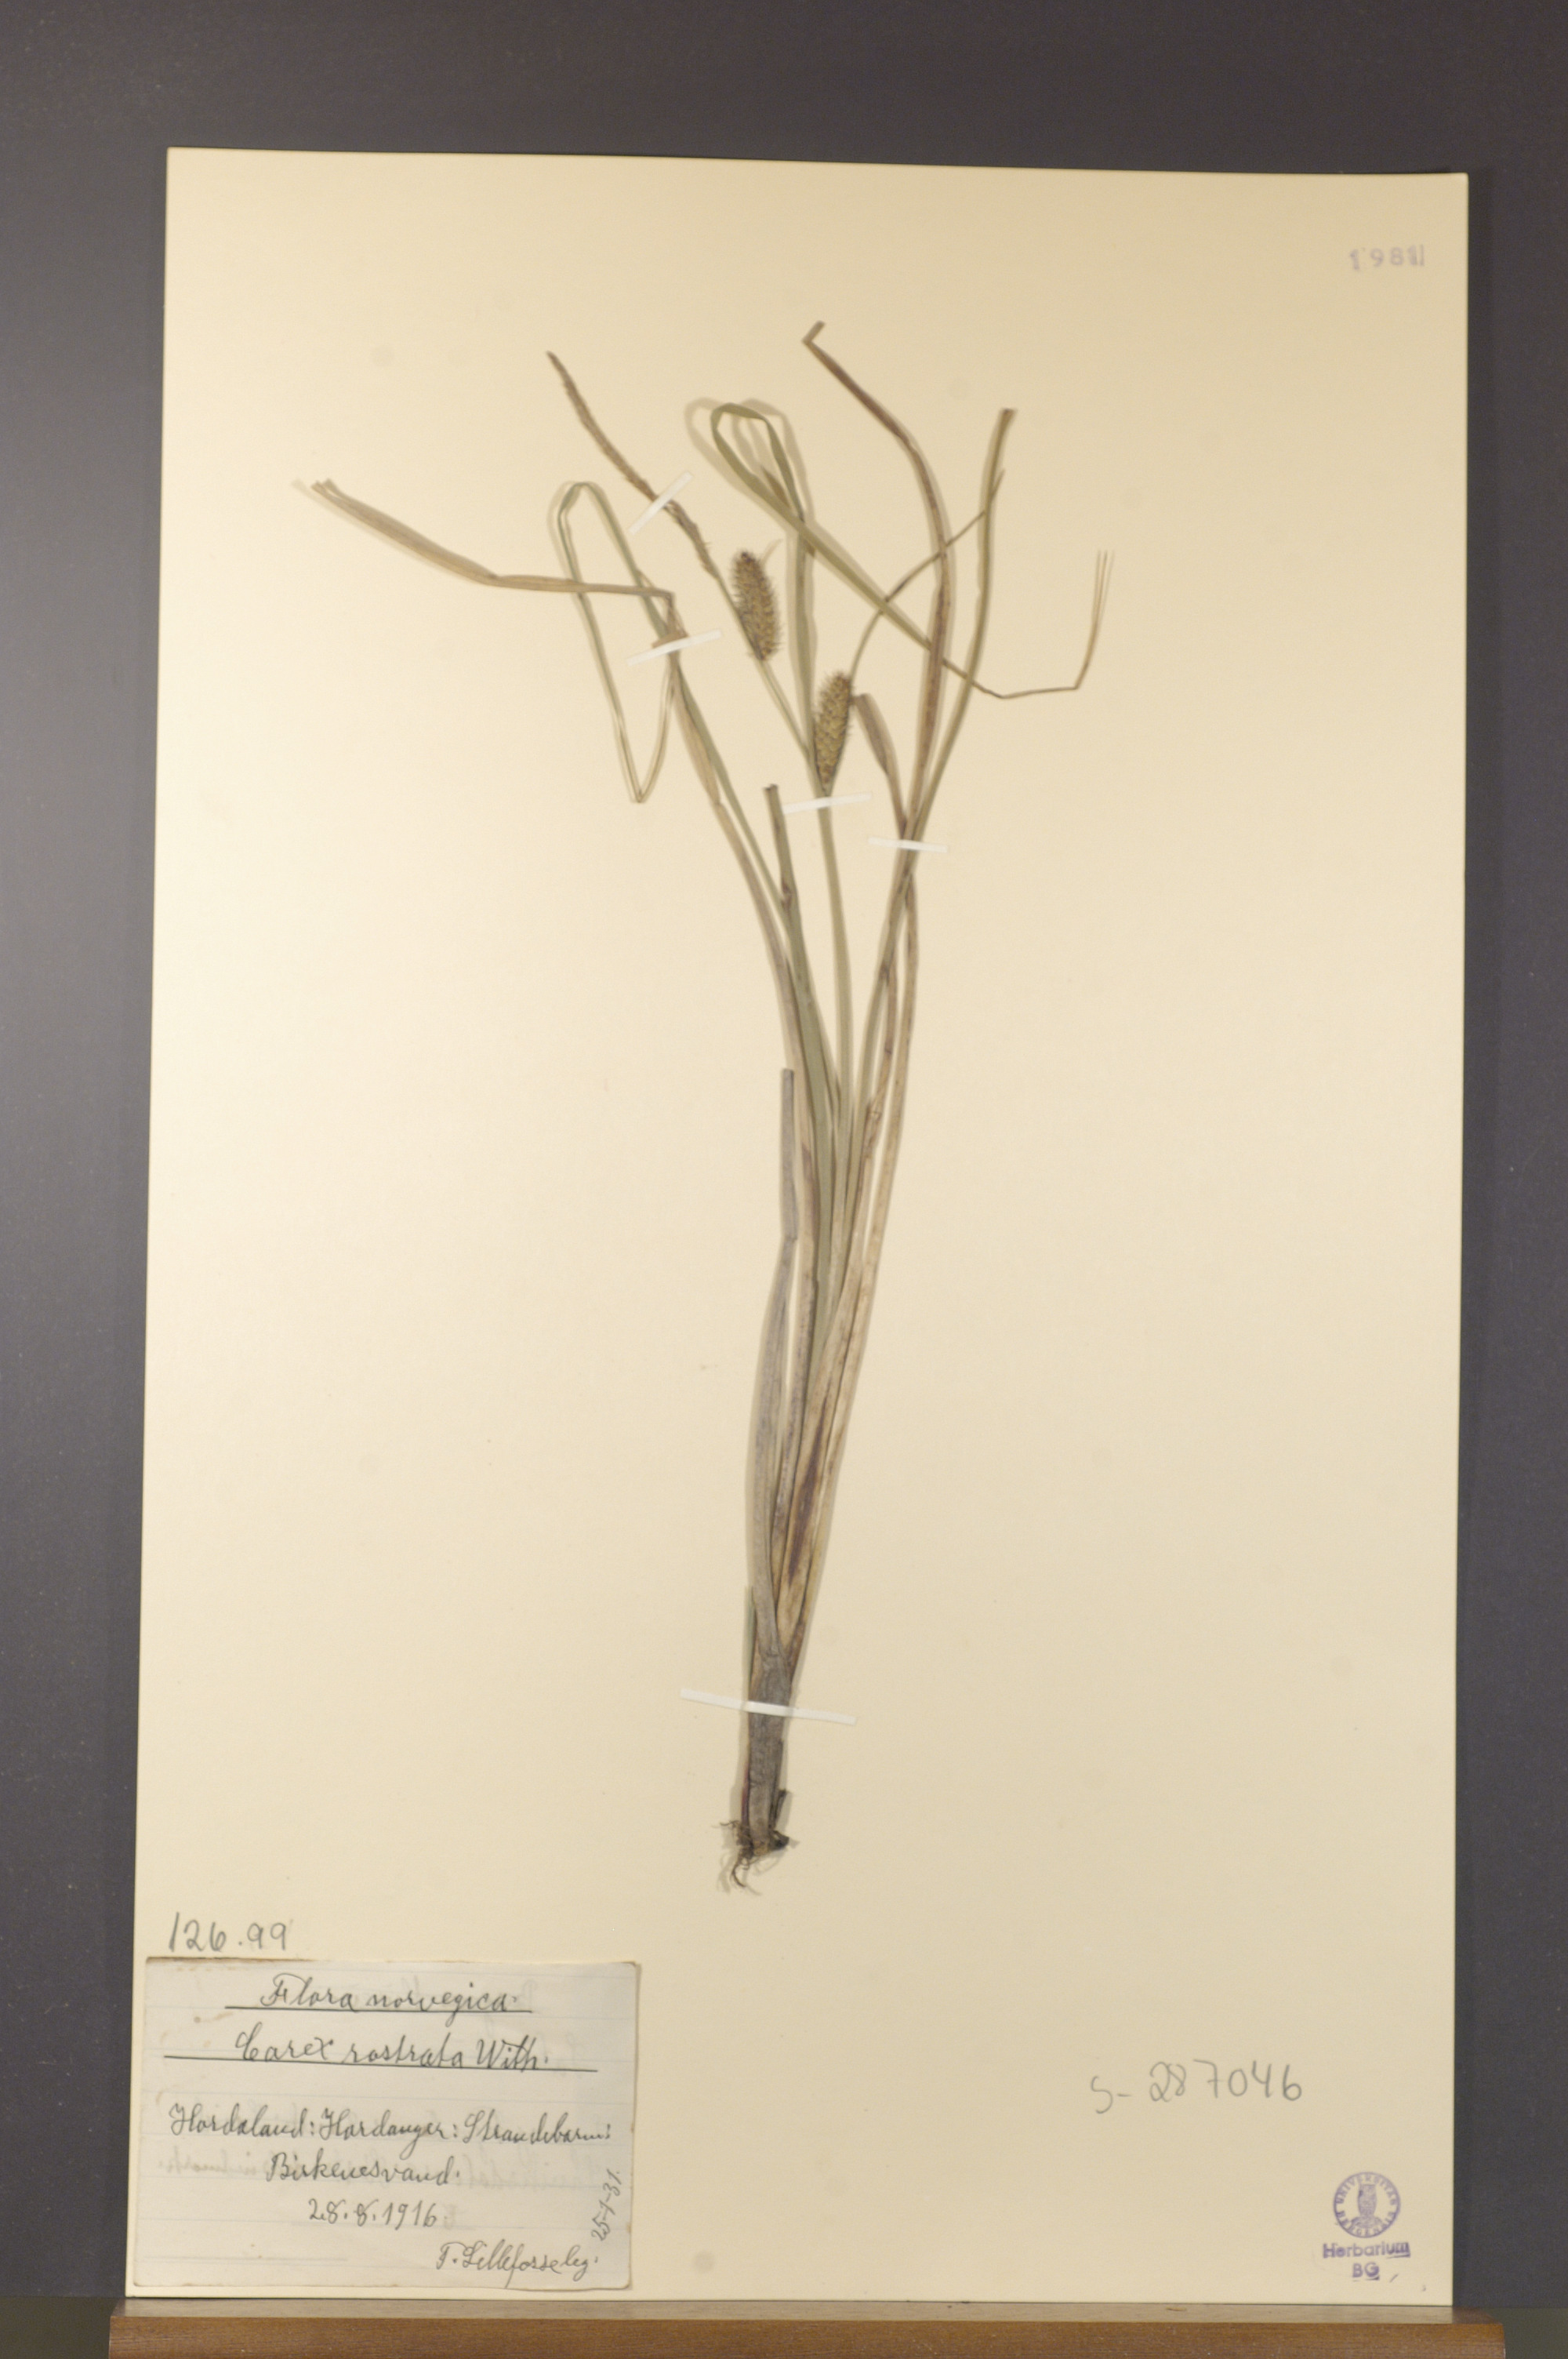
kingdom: Plantae
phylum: Tracheophyta
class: Liliopsida
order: Poales
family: Cyperaceae
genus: Carex
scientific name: Carex rostrata
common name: Bottle sedge
